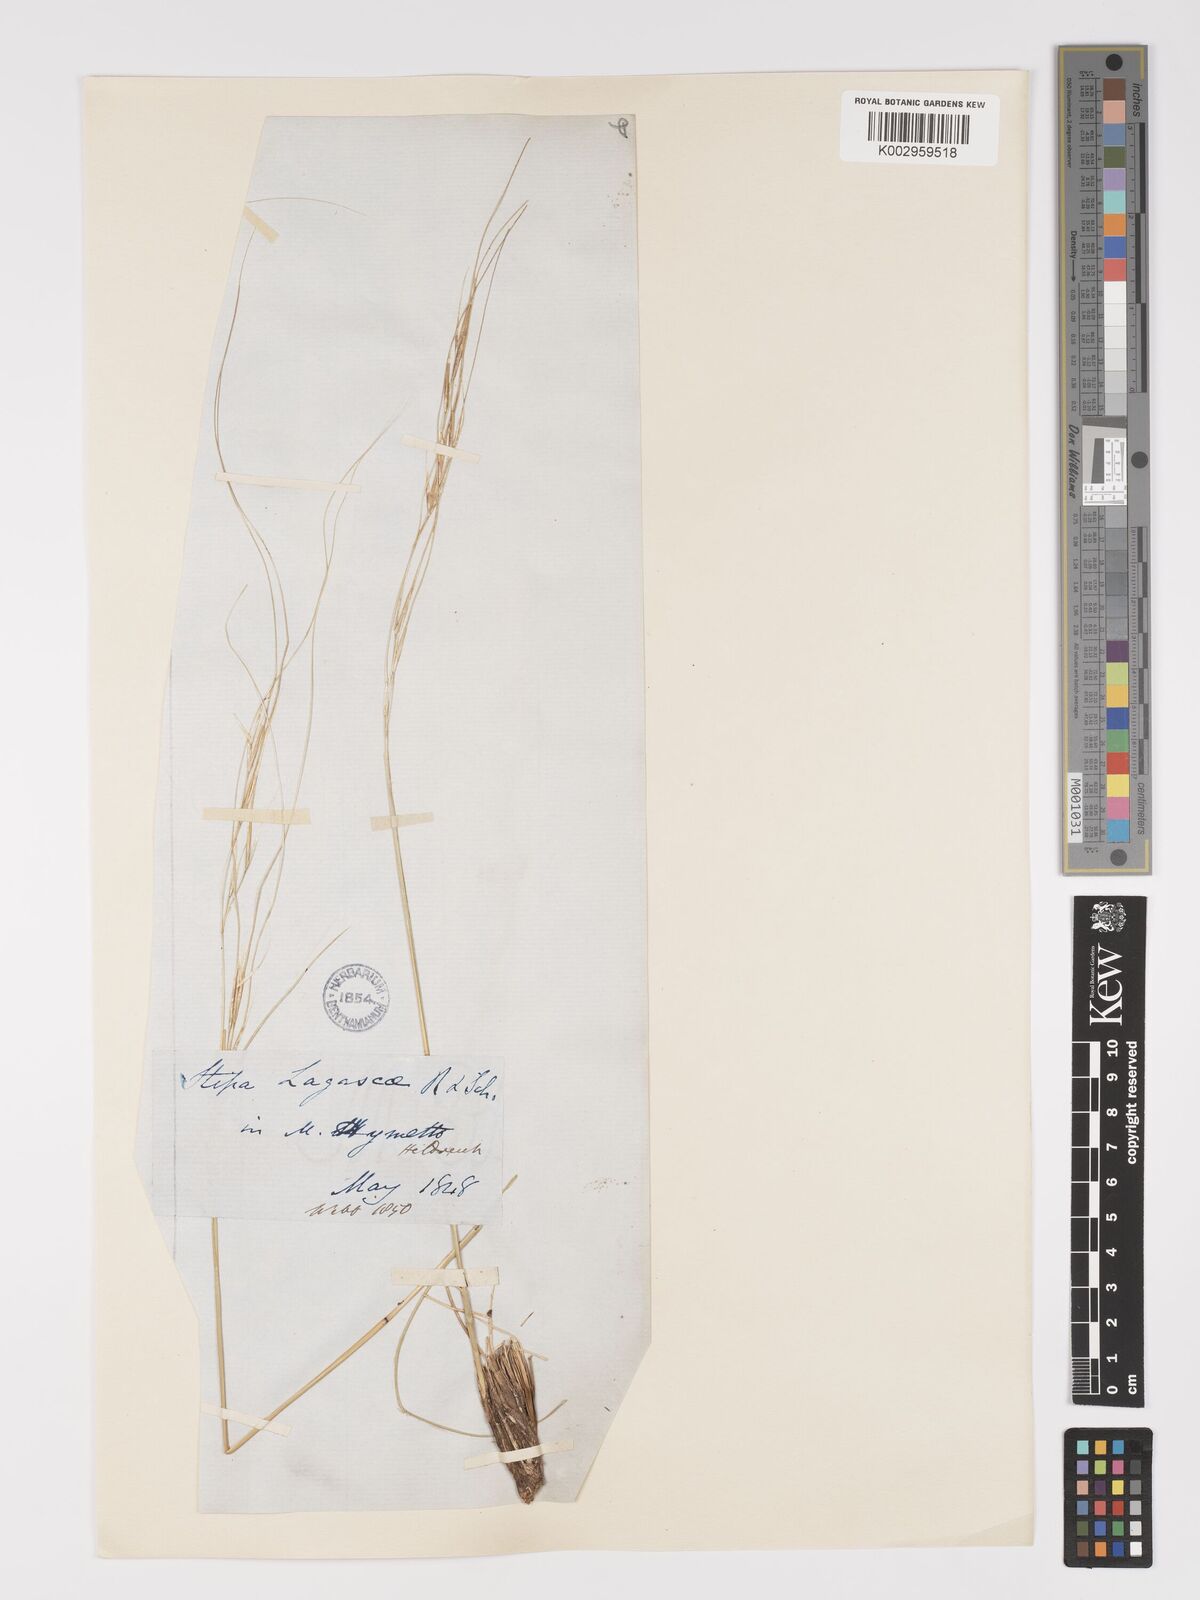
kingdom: Plantae
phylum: Tracheophyta
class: Liliopsida
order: Poales
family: Poaceae
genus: Stipa
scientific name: Stipa holosericea
